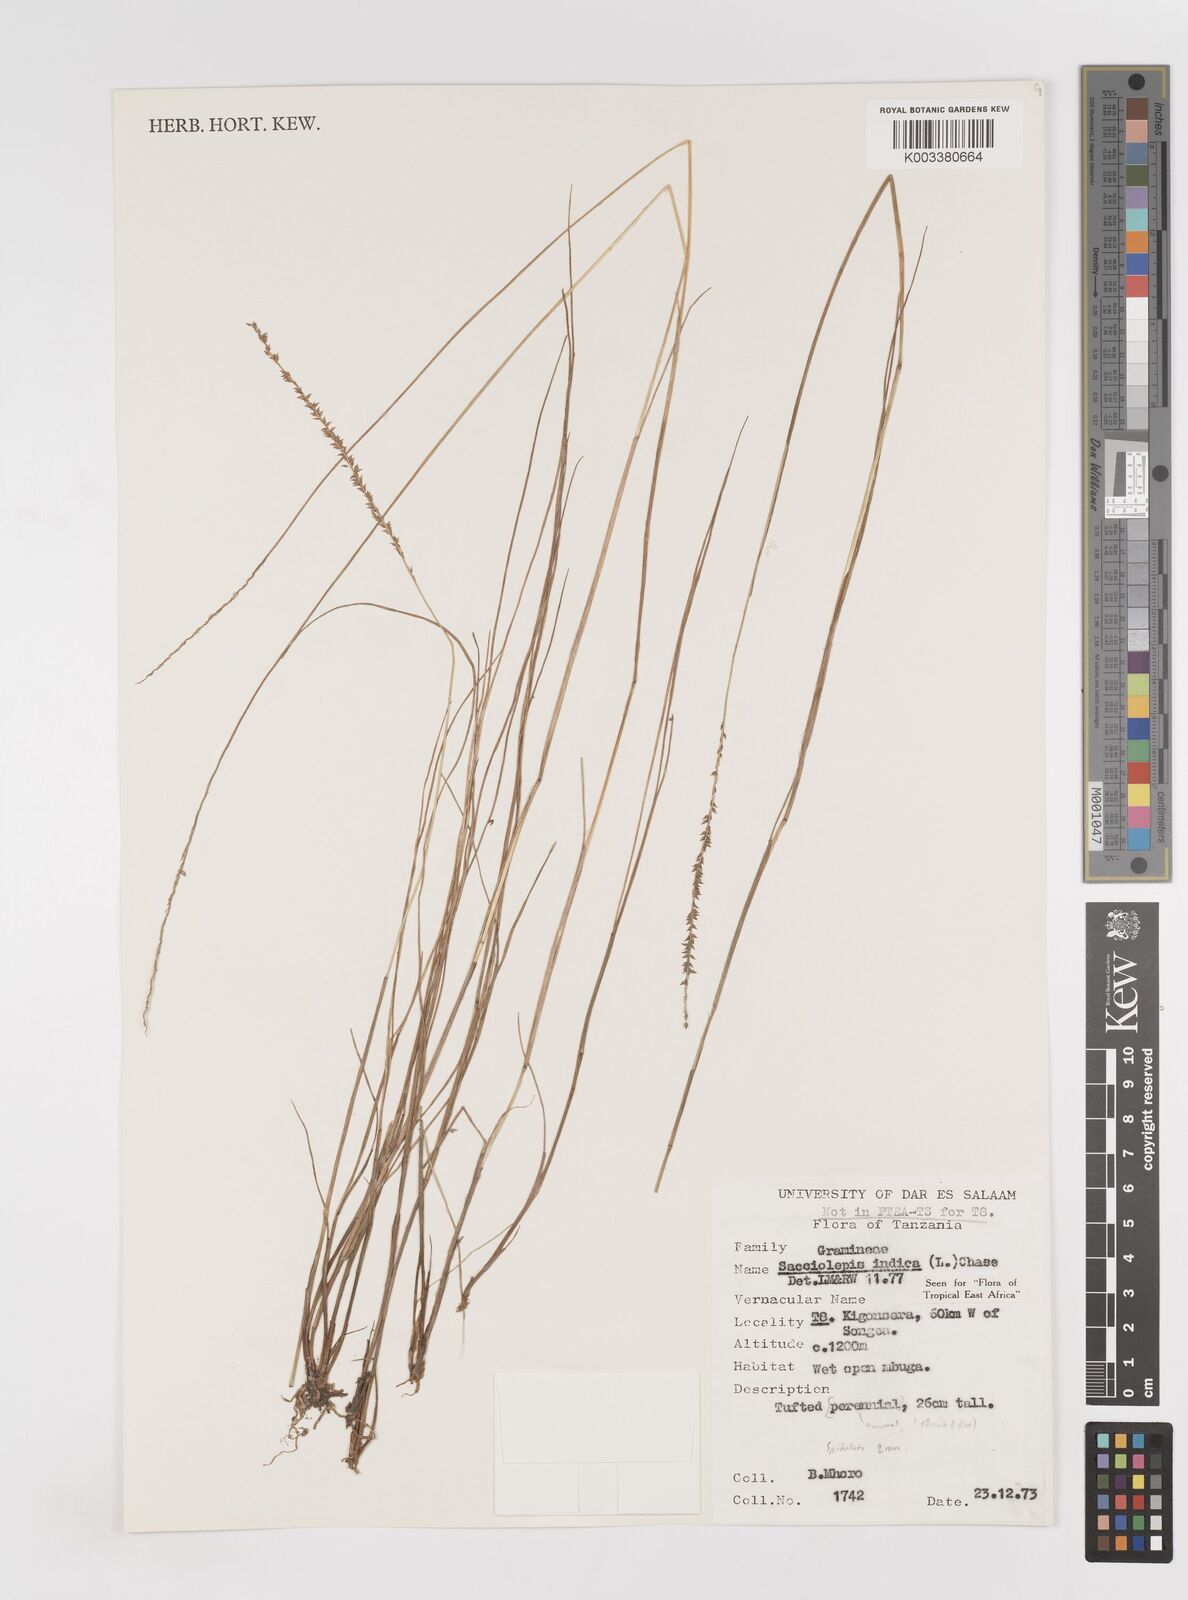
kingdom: Plantae
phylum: Tracheophyta
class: Liliopsida
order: Poales
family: Poaceae
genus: Sacciolepis
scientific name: Sacciolepis indica
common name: Glenwoodgrass
